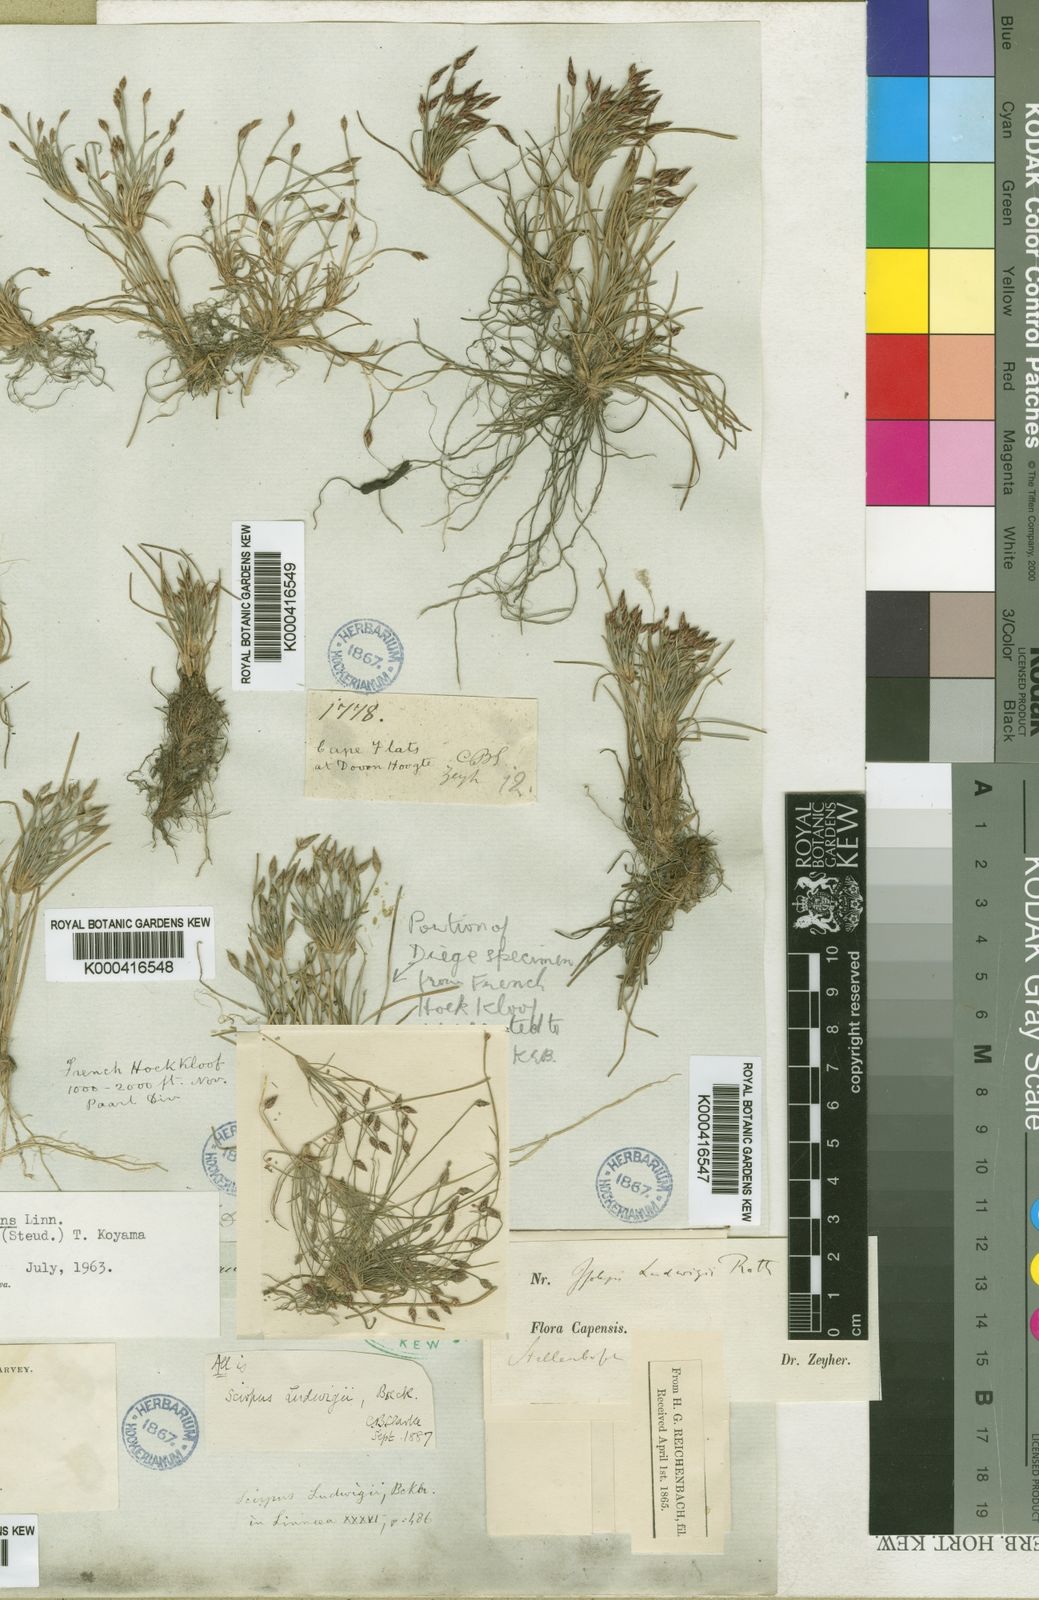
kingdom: Plantae
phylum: Tracheophyta
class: Liliopsida
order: Poales
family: Cyperaceae
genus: Isolepis
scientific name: Isolepis
